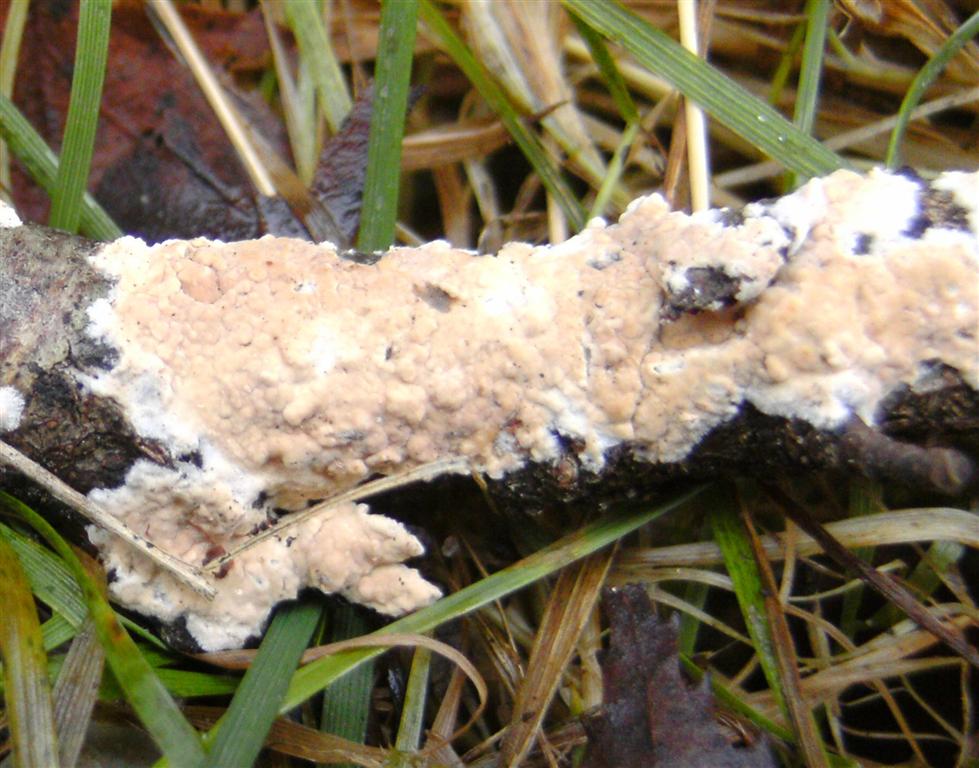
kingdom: Fungi
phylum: Basidiomycota
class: Agaricomycetes
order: Agaricales
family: Physalacriaceae
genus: Cylindrobasidium
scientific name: Cylindrobasidium evolvens
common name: sprækkehinde
